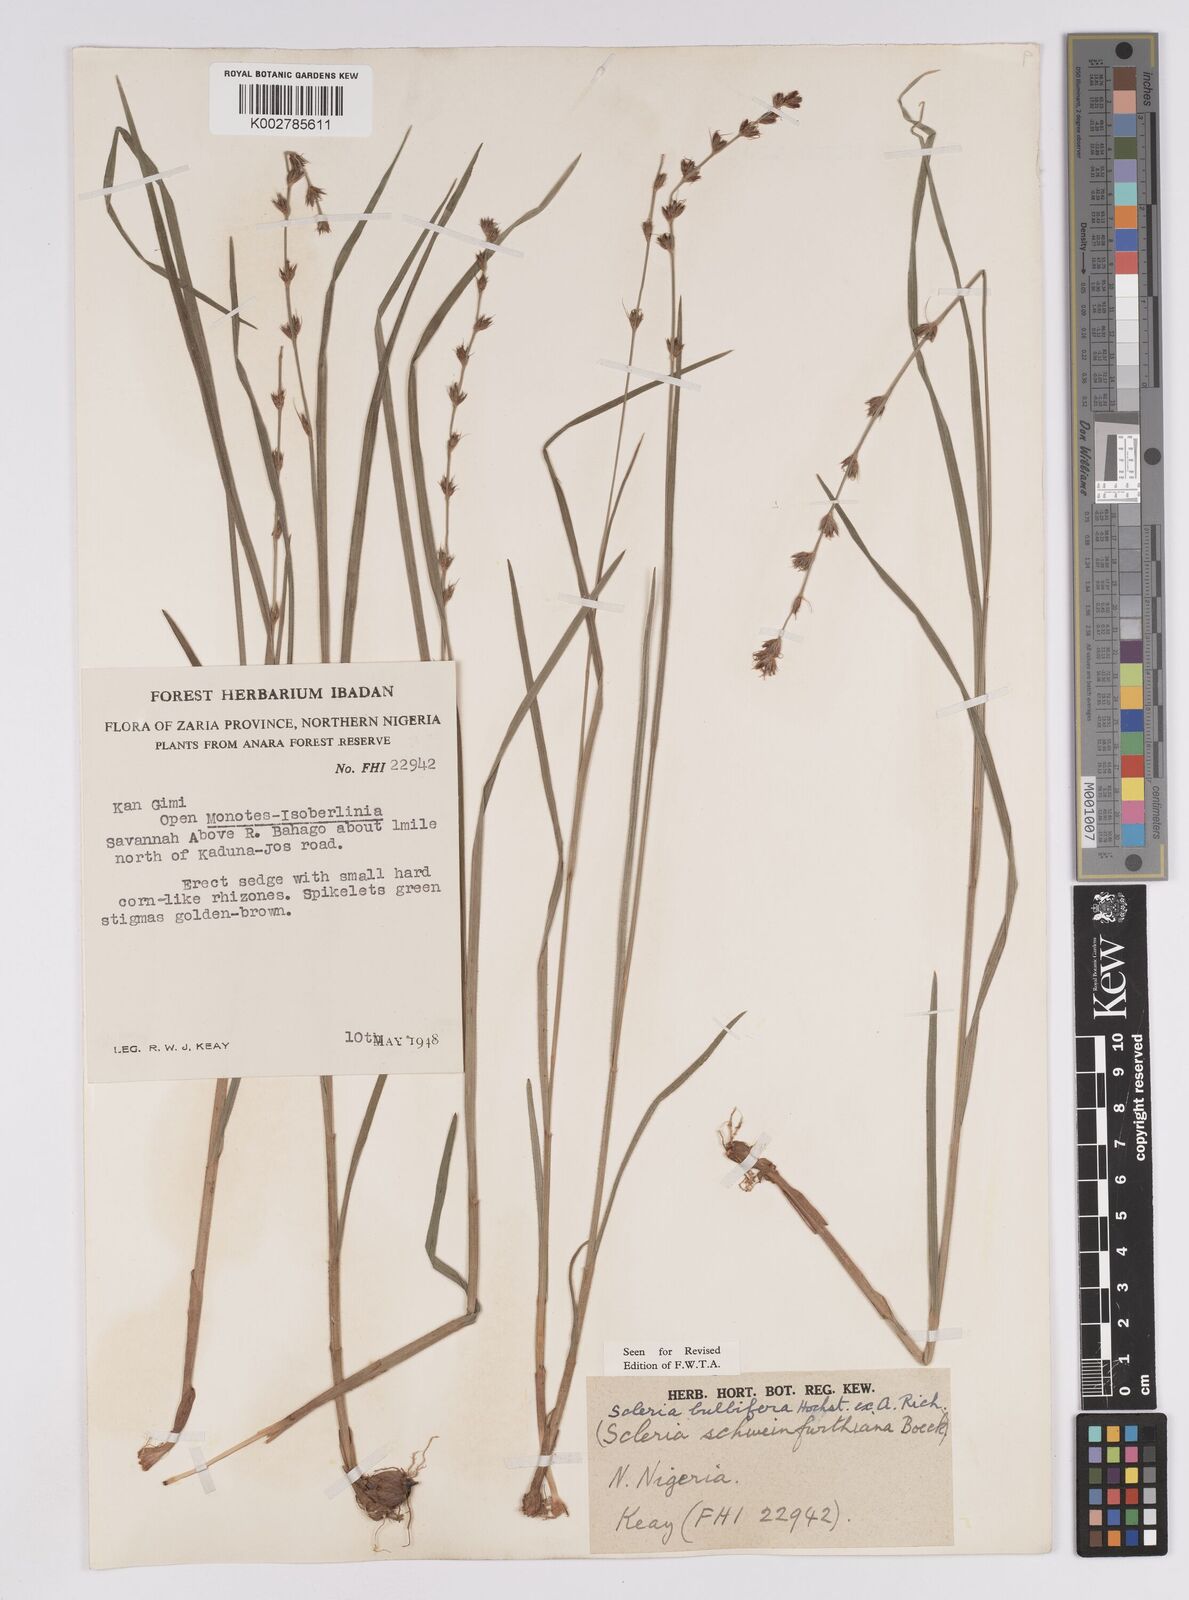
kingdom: Plantae
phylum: Tracheophyta
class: Liliopsida
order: Poales
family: Cyperaceae
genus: Scleria
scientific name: Scleria bulbifera
